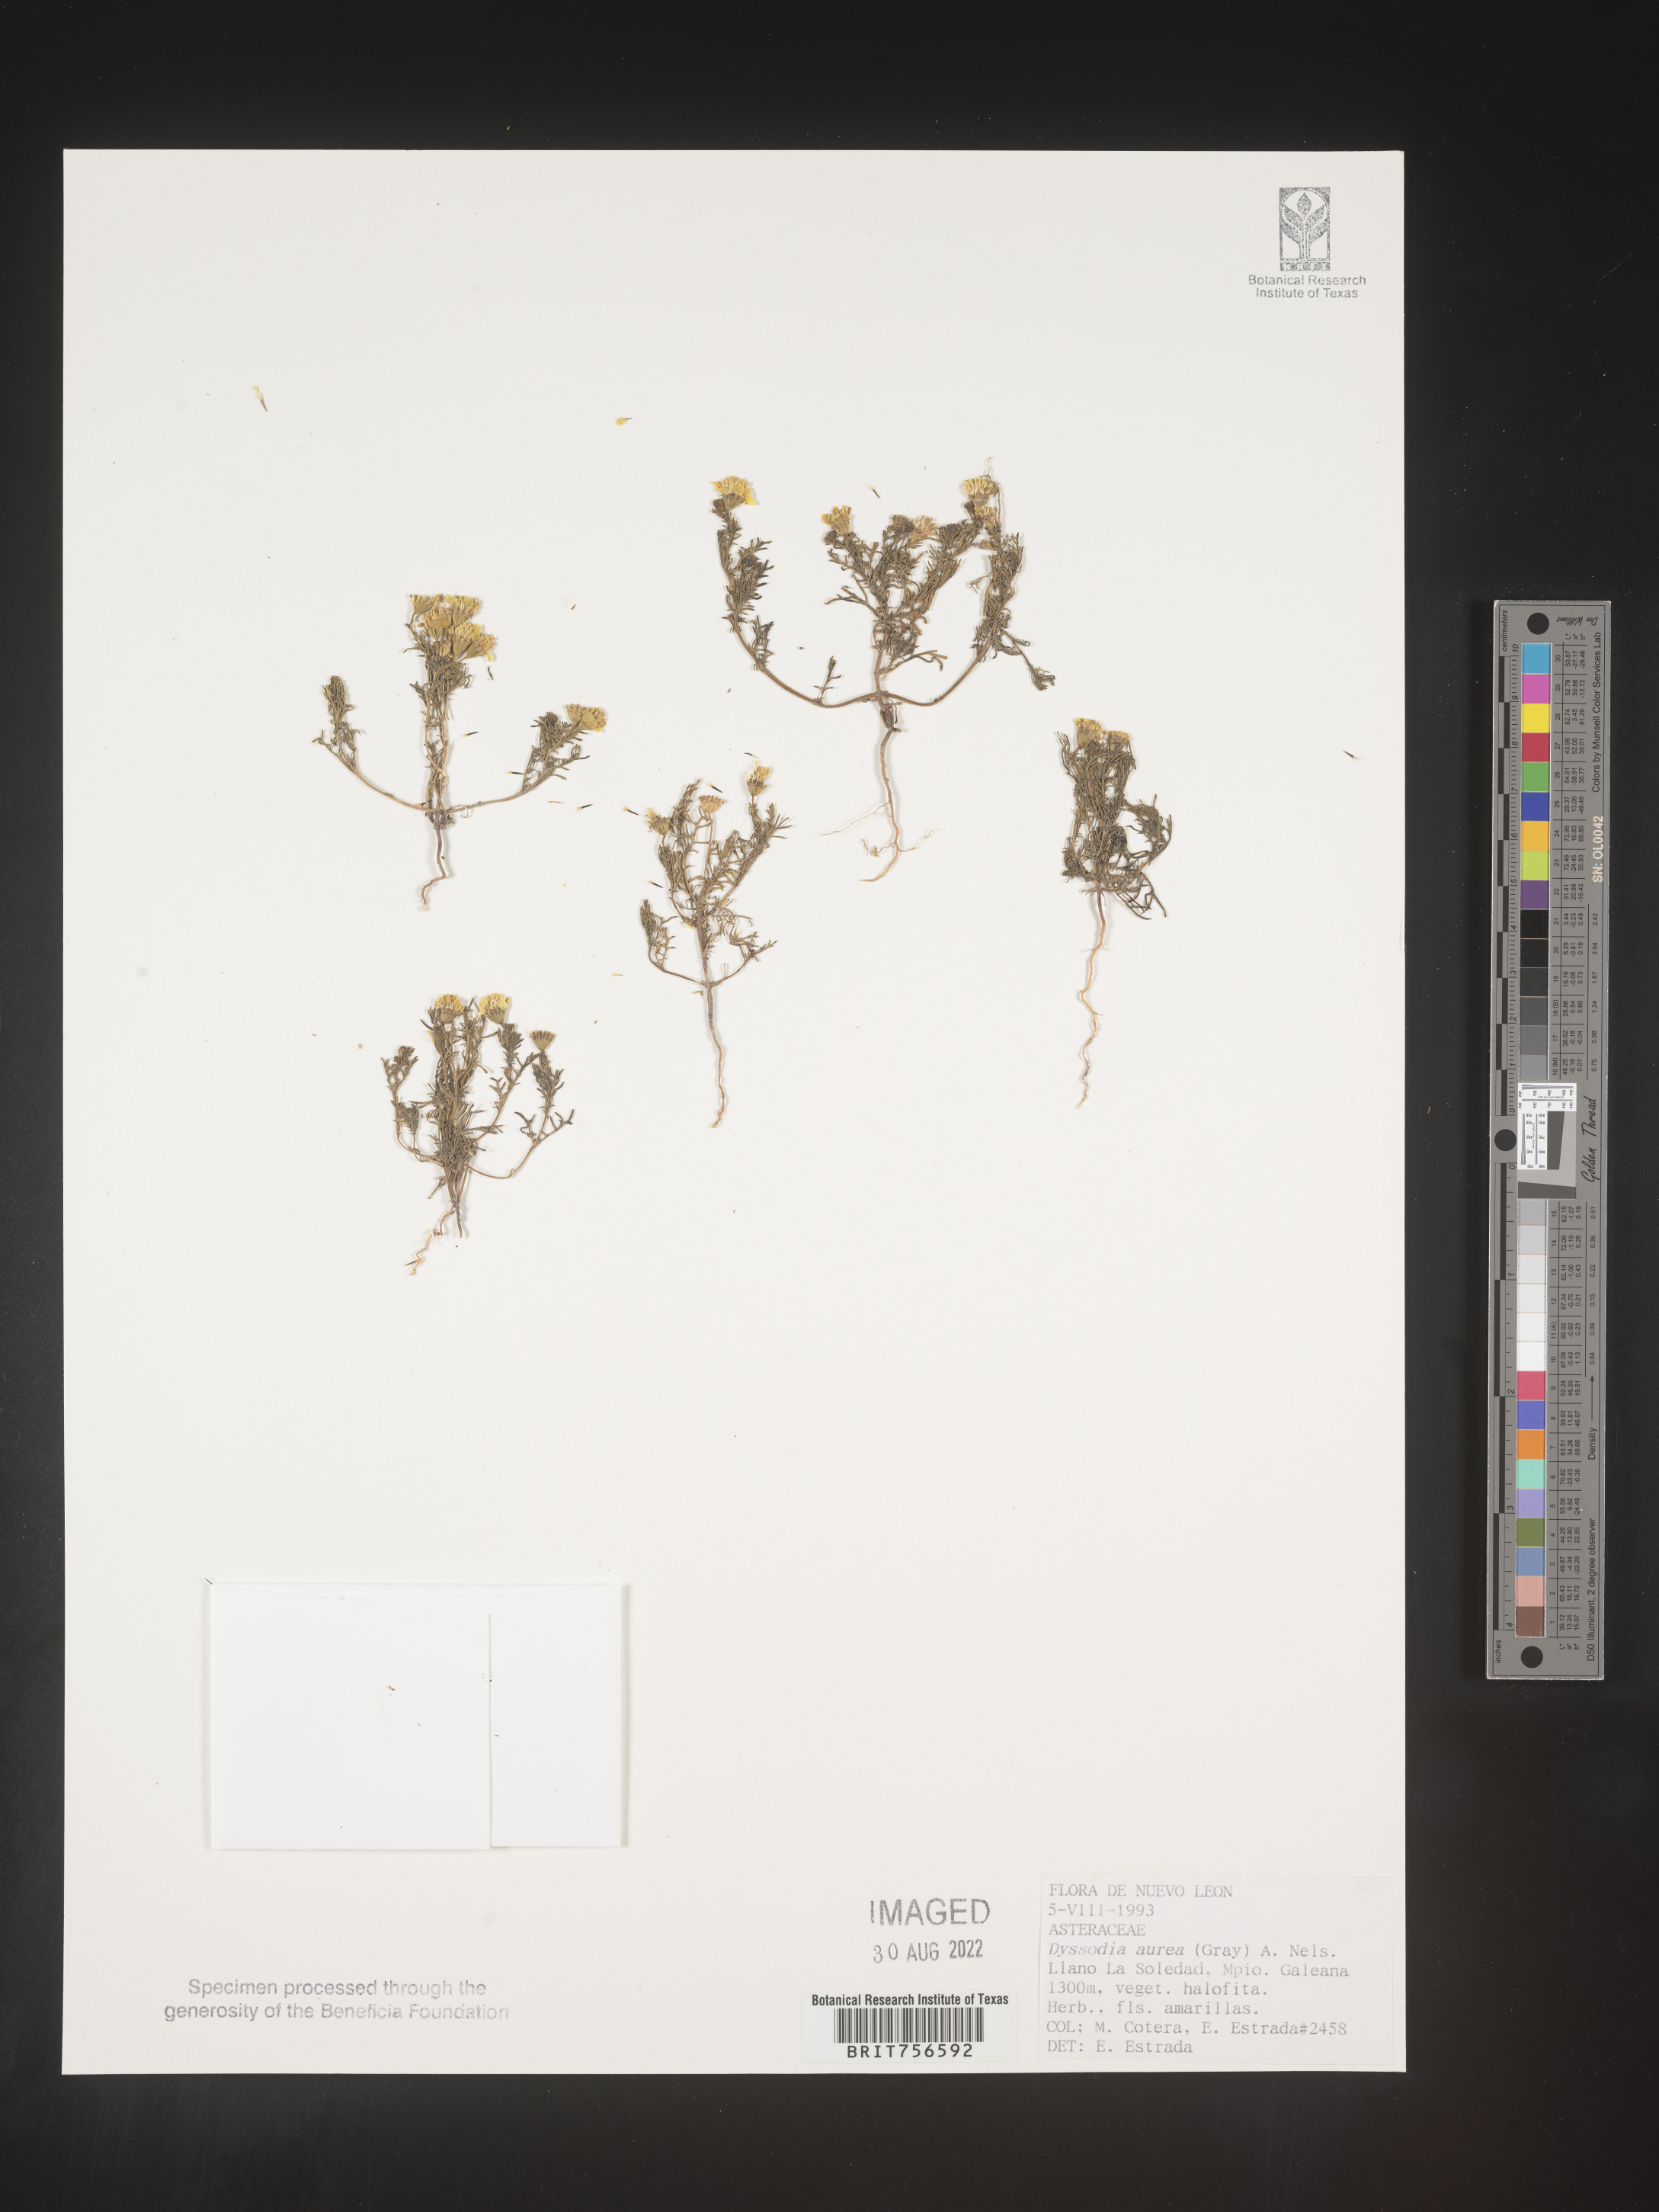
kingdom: Plantae
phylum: Tracheophyta
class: Magnoliopsida
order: Asterales
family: Asteraceae
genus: Thymophylla
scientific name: Thymophylla aurea
